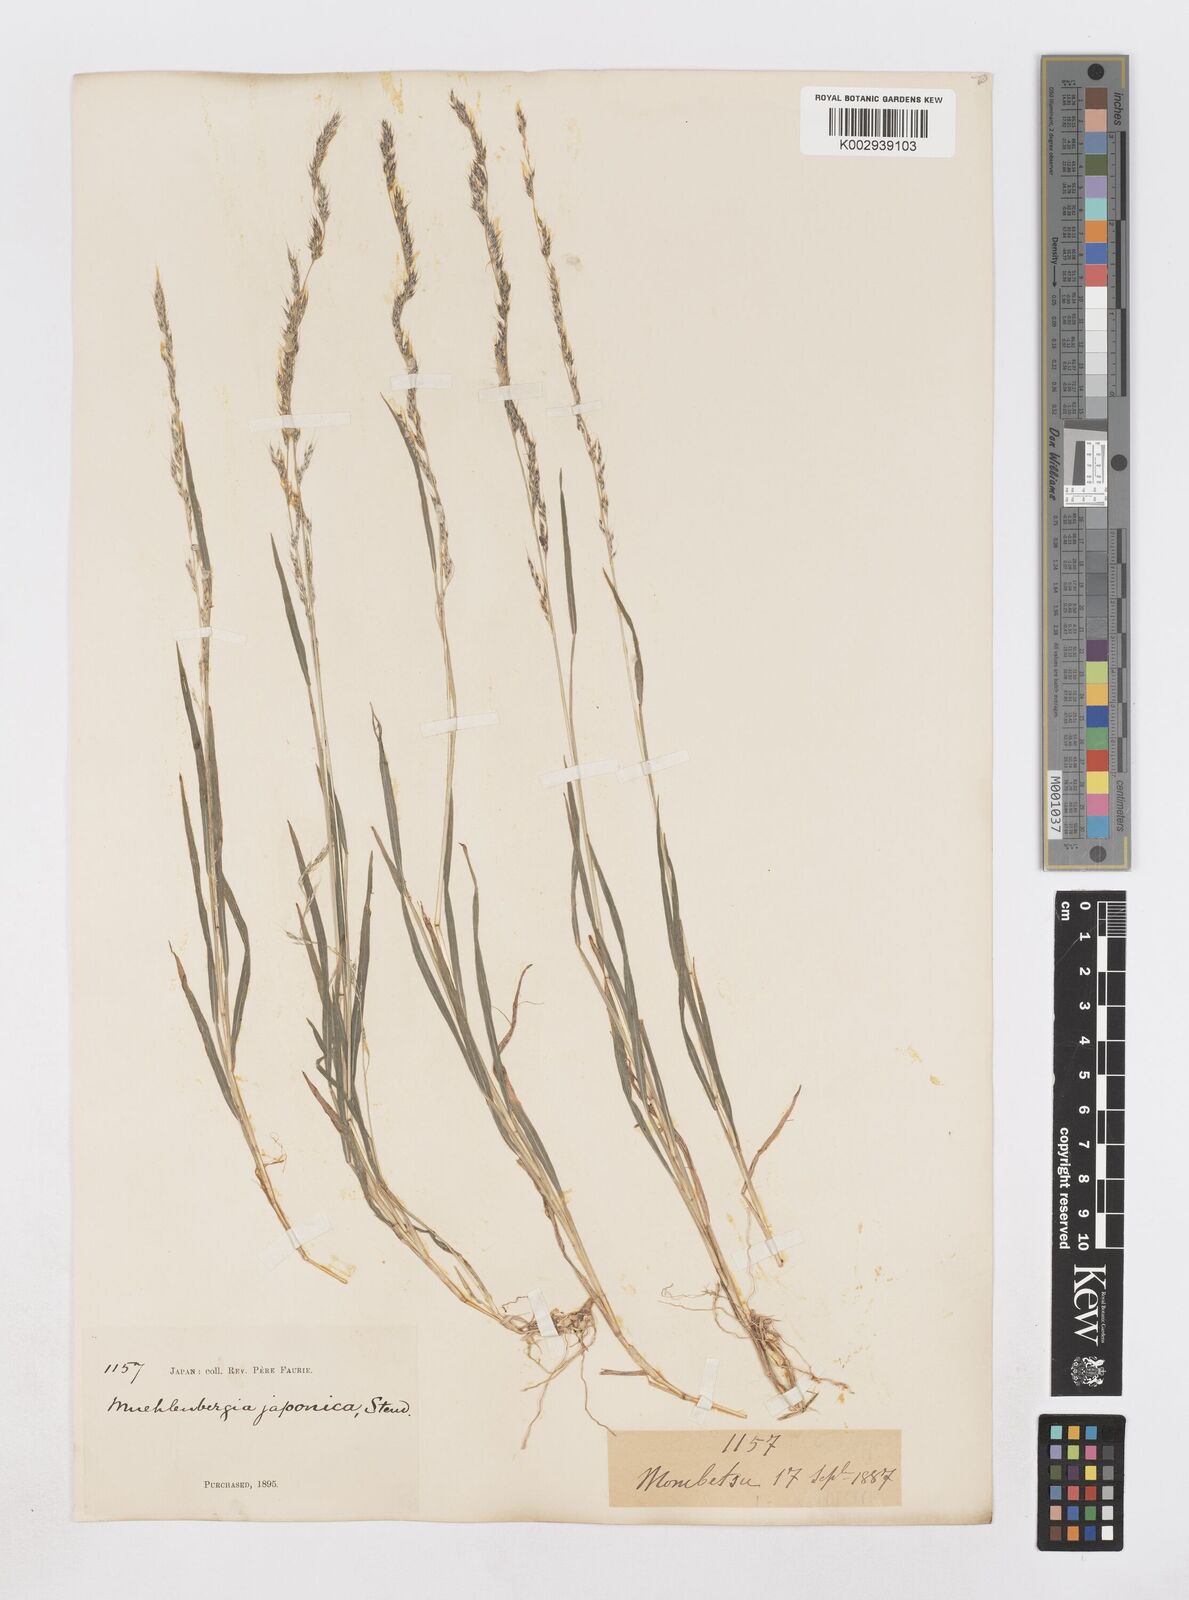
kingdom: Plantae
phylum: Tracheophyta
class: Liliopsida
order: Poales
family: Poaceae
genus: Muhlenbergia
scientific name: Muhlenbergia japonica
